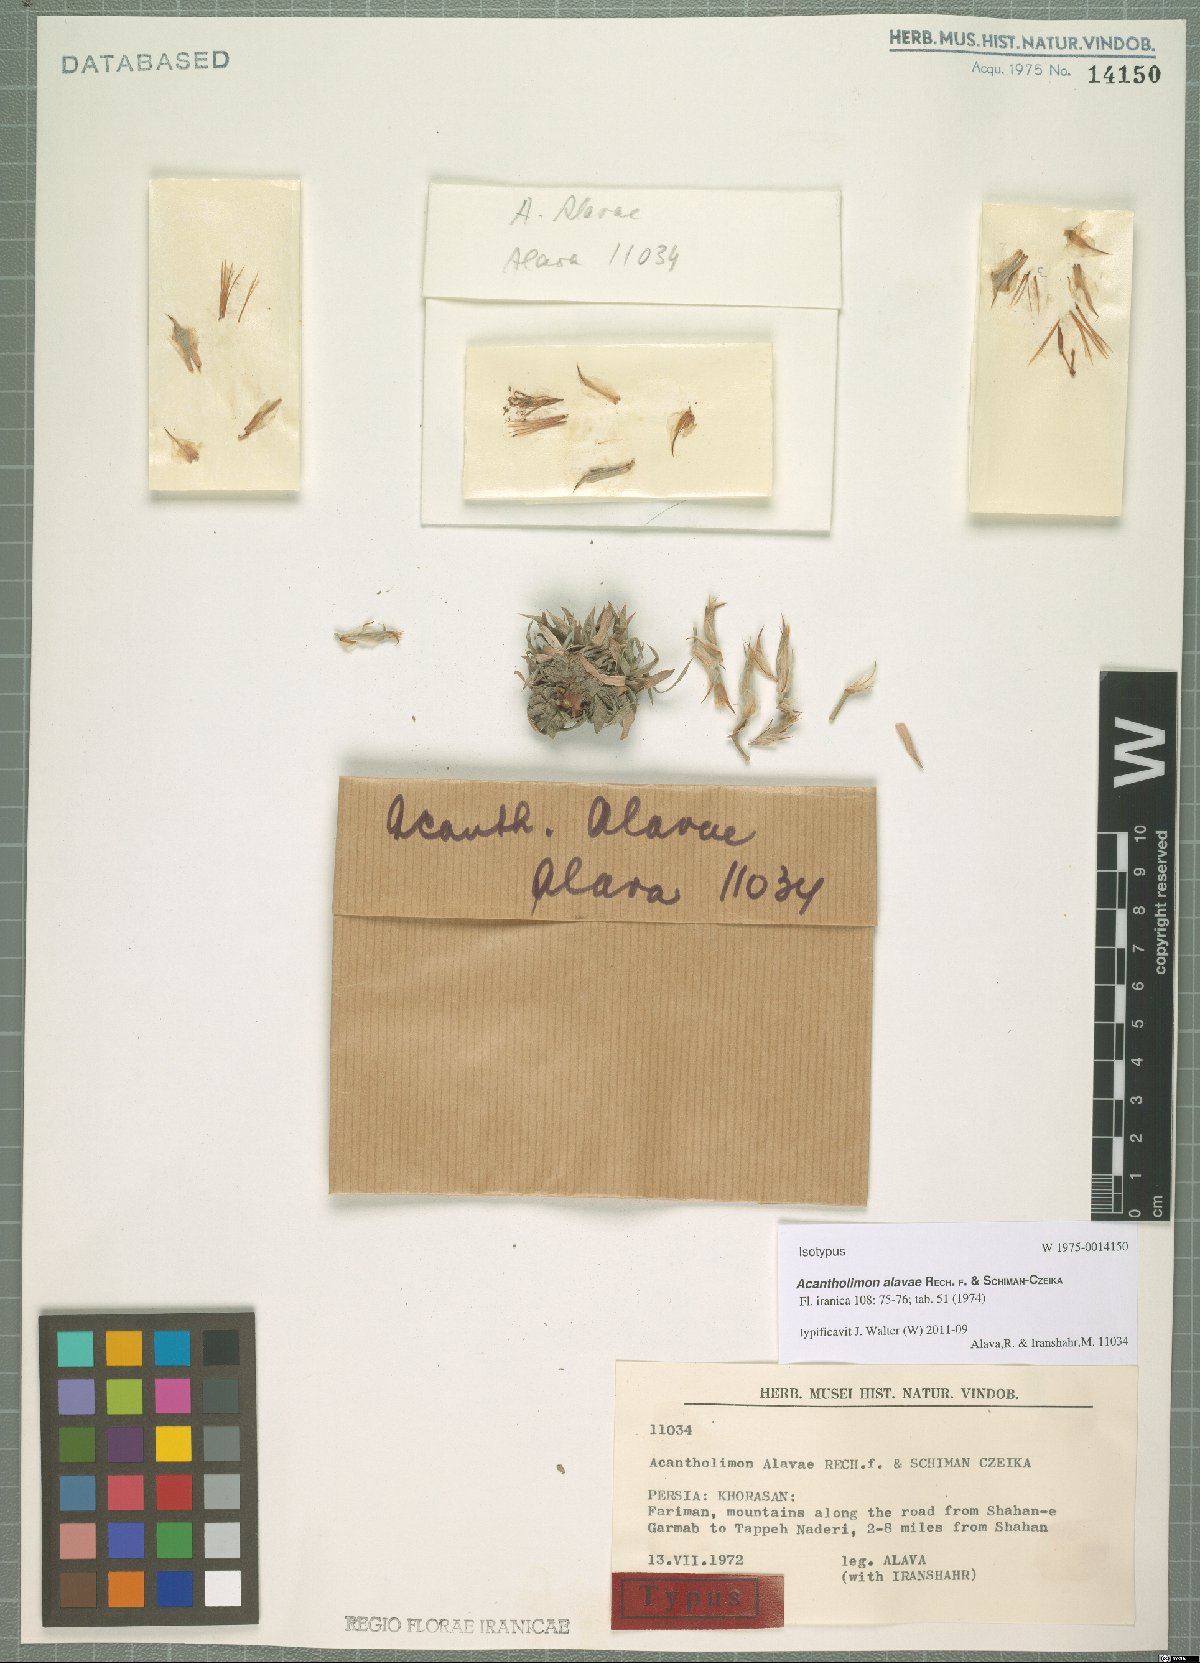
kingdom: Plantae
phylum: Tracheophyta
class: Magnoliopsida
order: Caryophyllales
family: Plumbaginaceae
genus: Acantholimon
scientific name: Acantholimon alavae
